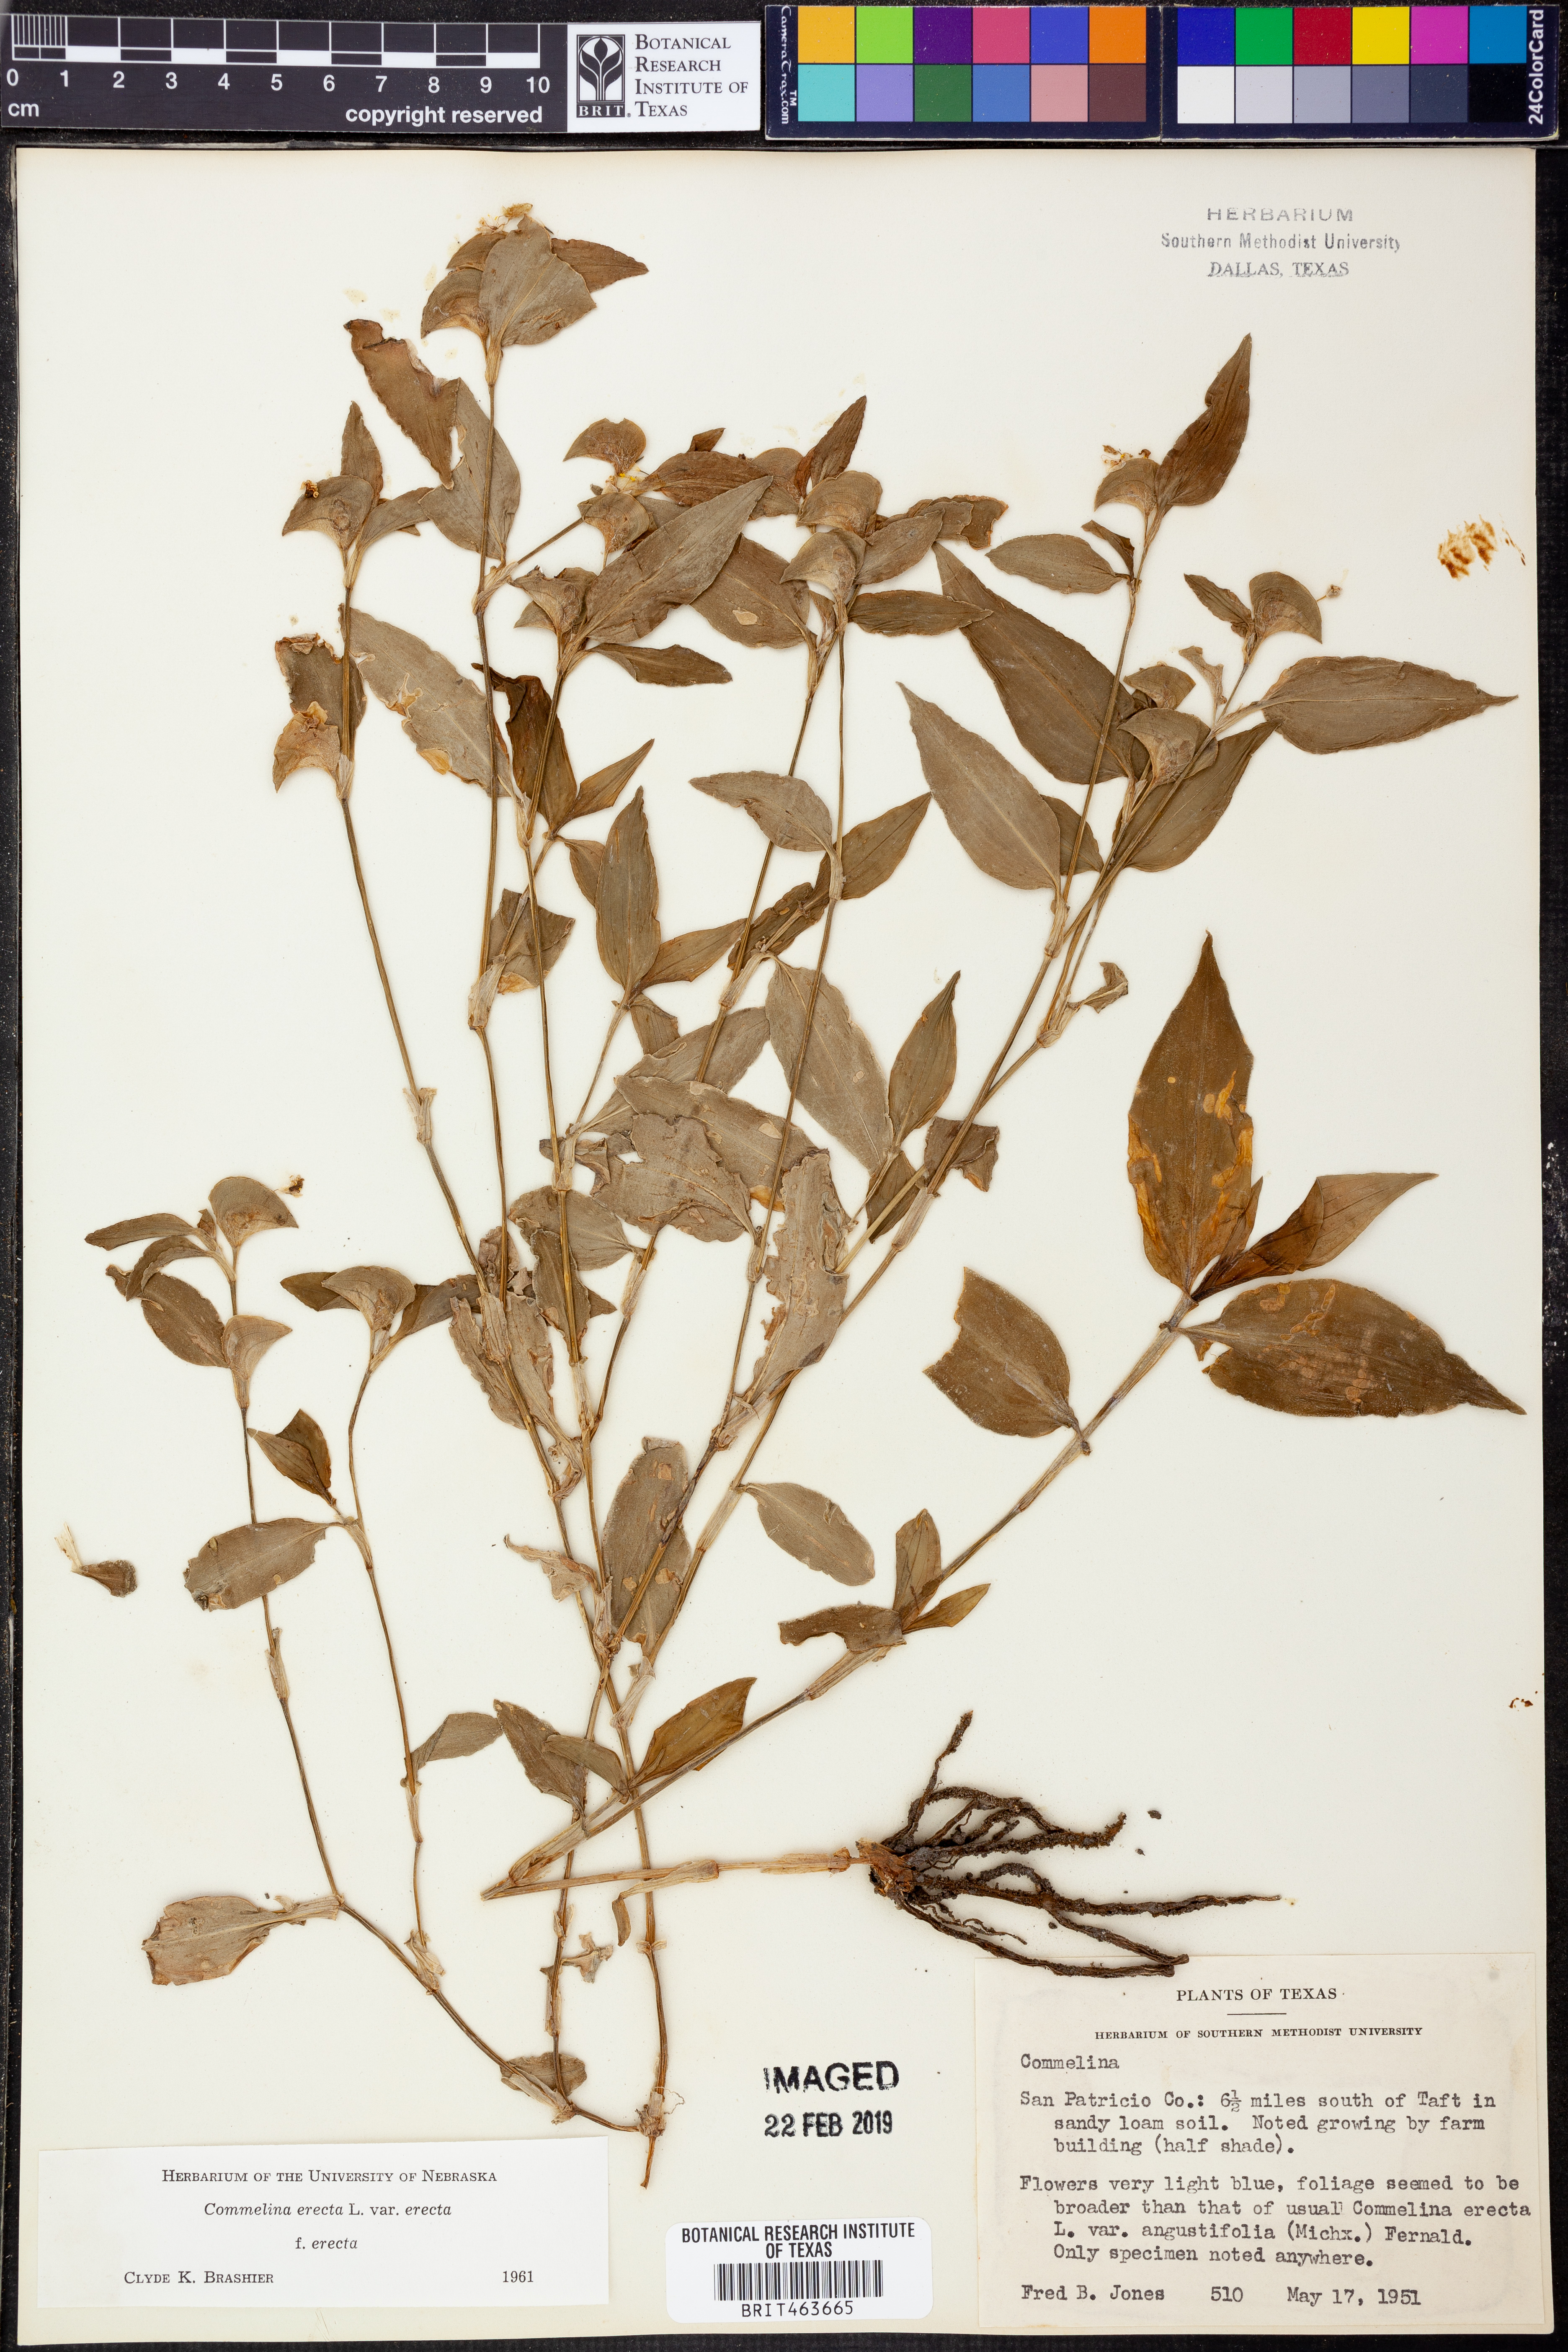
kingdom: Plantae
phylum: Tracheophyta
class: Liliopsida
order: Commelinales
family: Commelinaceae
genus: Commelina
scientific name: Commelina
